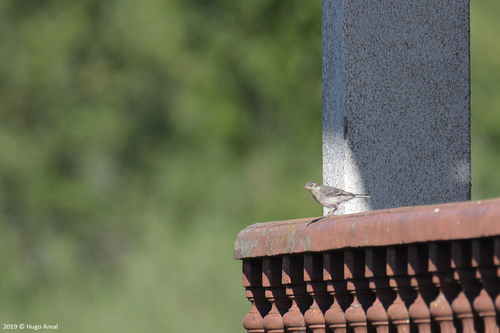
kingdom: Animalia
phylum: Chordata
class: Aves
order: Passeriformes
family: Motacillidae
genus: Motacilla
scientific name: Motacilla alba
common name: White wagtail
